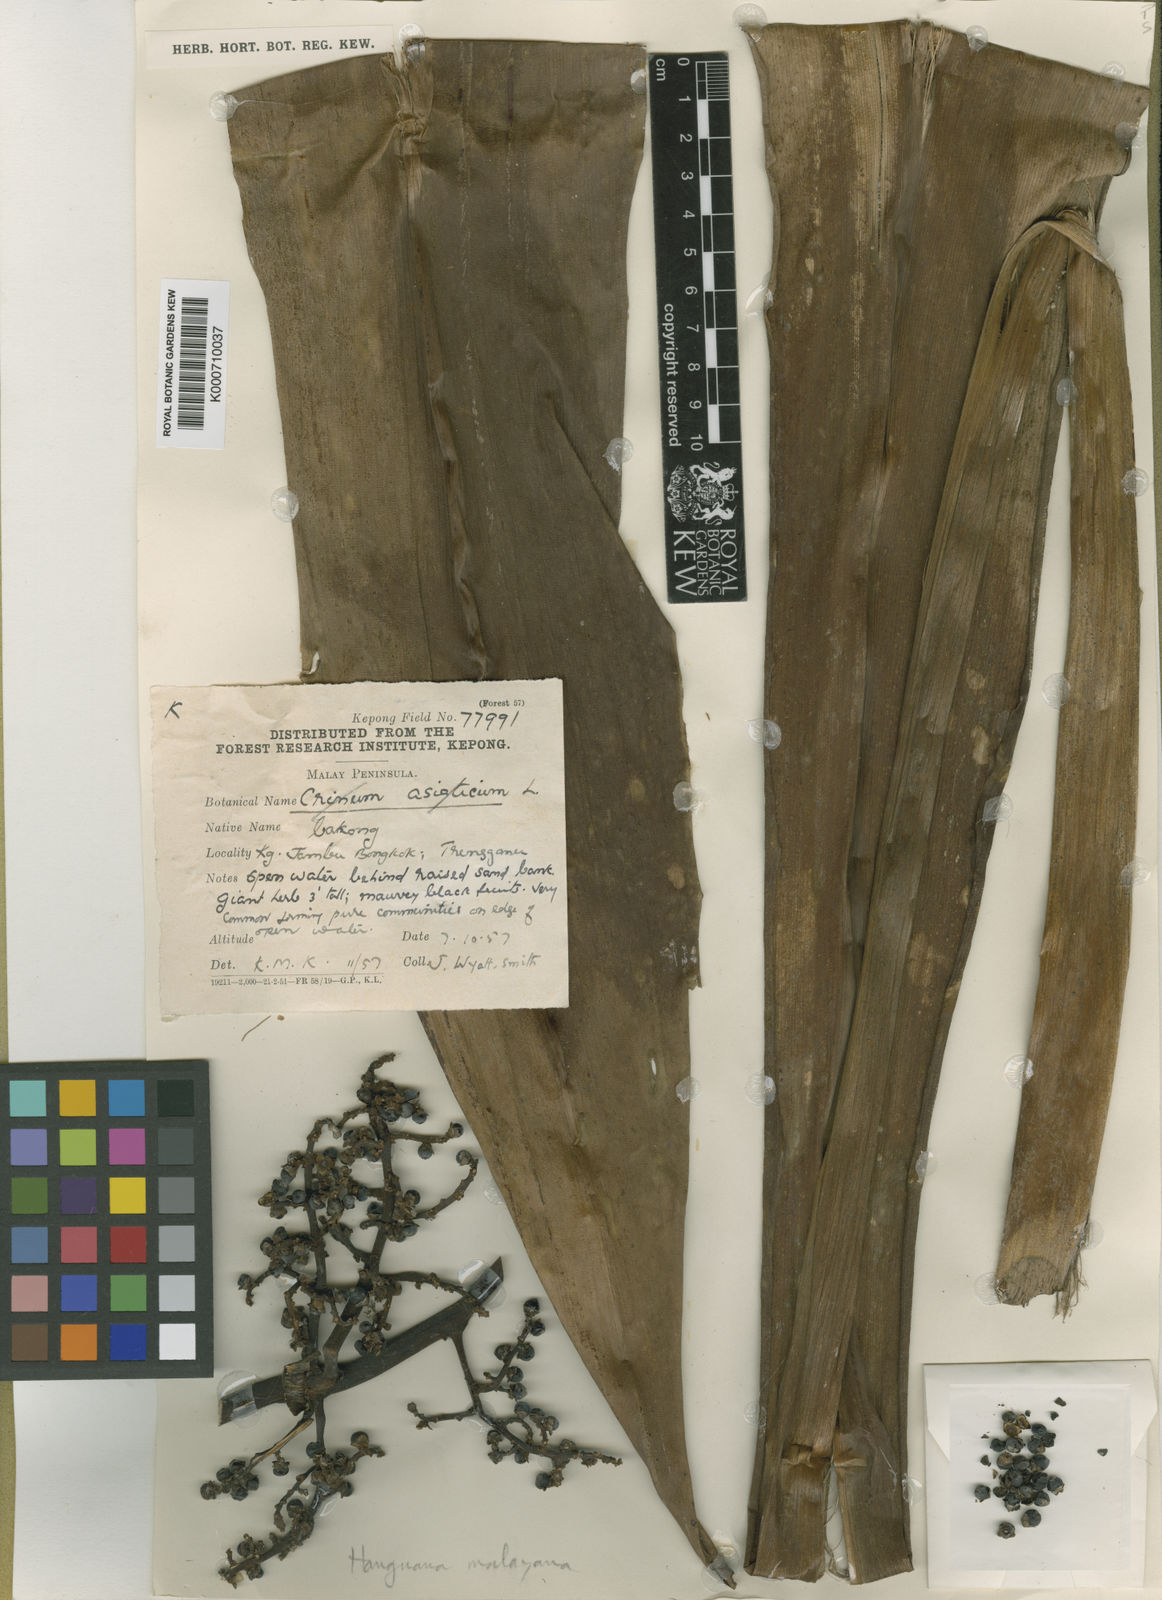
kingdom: Plantae
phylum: Tracheophyta
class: Liliopsida
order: Commelinales
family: Hanguanaceae
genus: Hanguana
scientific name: Hanguana malayana
